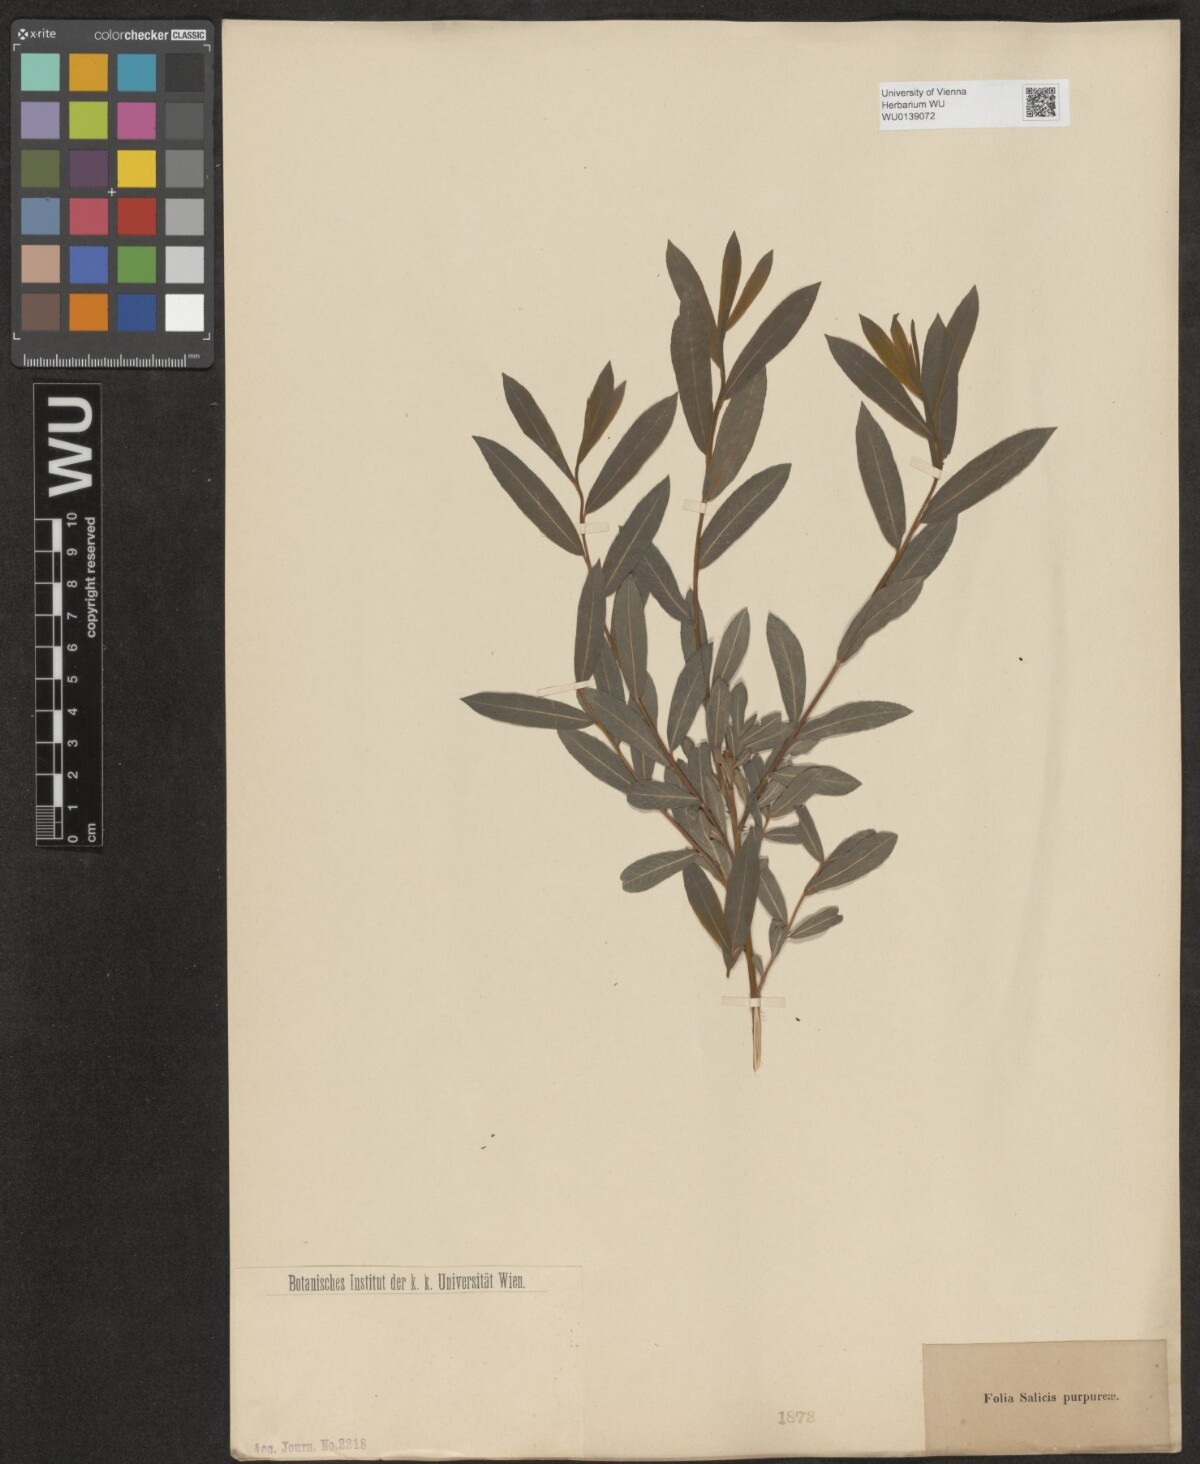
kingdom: Plantae
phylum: Tracheophyta
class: Magnoliopsida
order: Malpighiales
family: Salicaceae
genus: Salix
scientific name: Salix purpurea
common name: Purple willow
